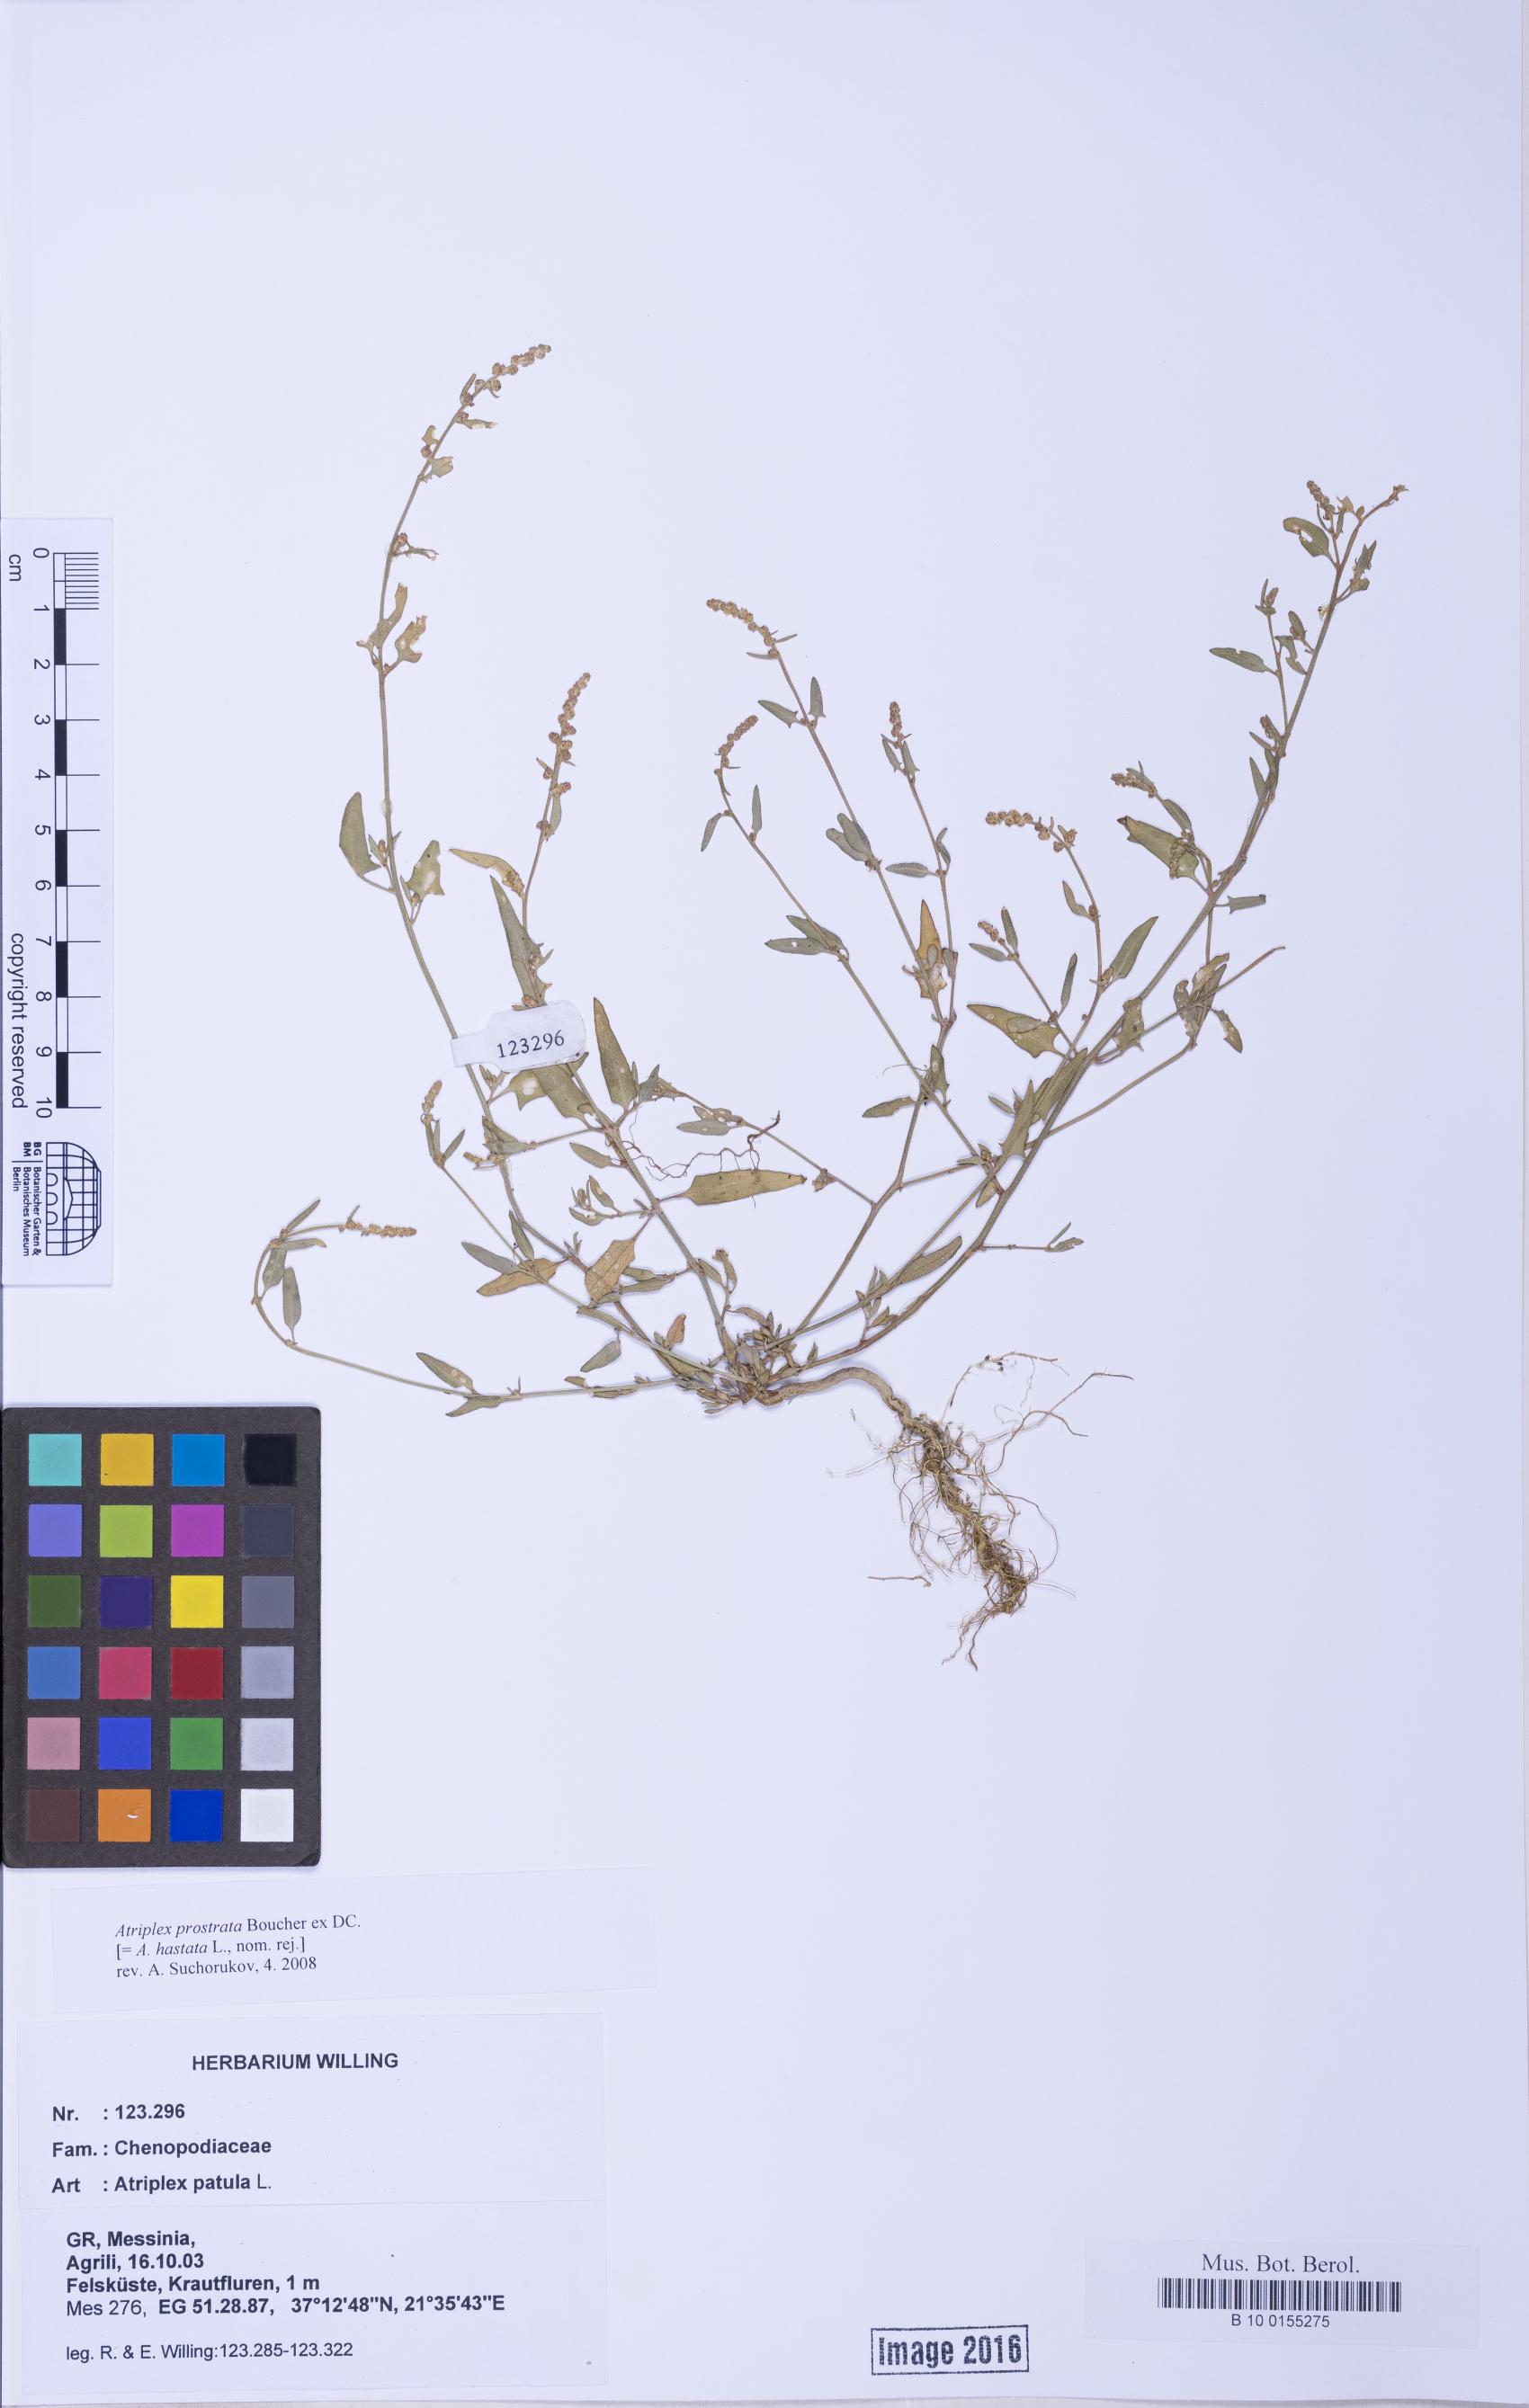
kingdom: Plantae
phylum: Tracheophyta
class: Magnoliopsida
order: Caryophyllales
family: Amaranthaceae
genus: Atriplex
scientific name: Atriplex prostrata
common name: Spear-leaved orache
